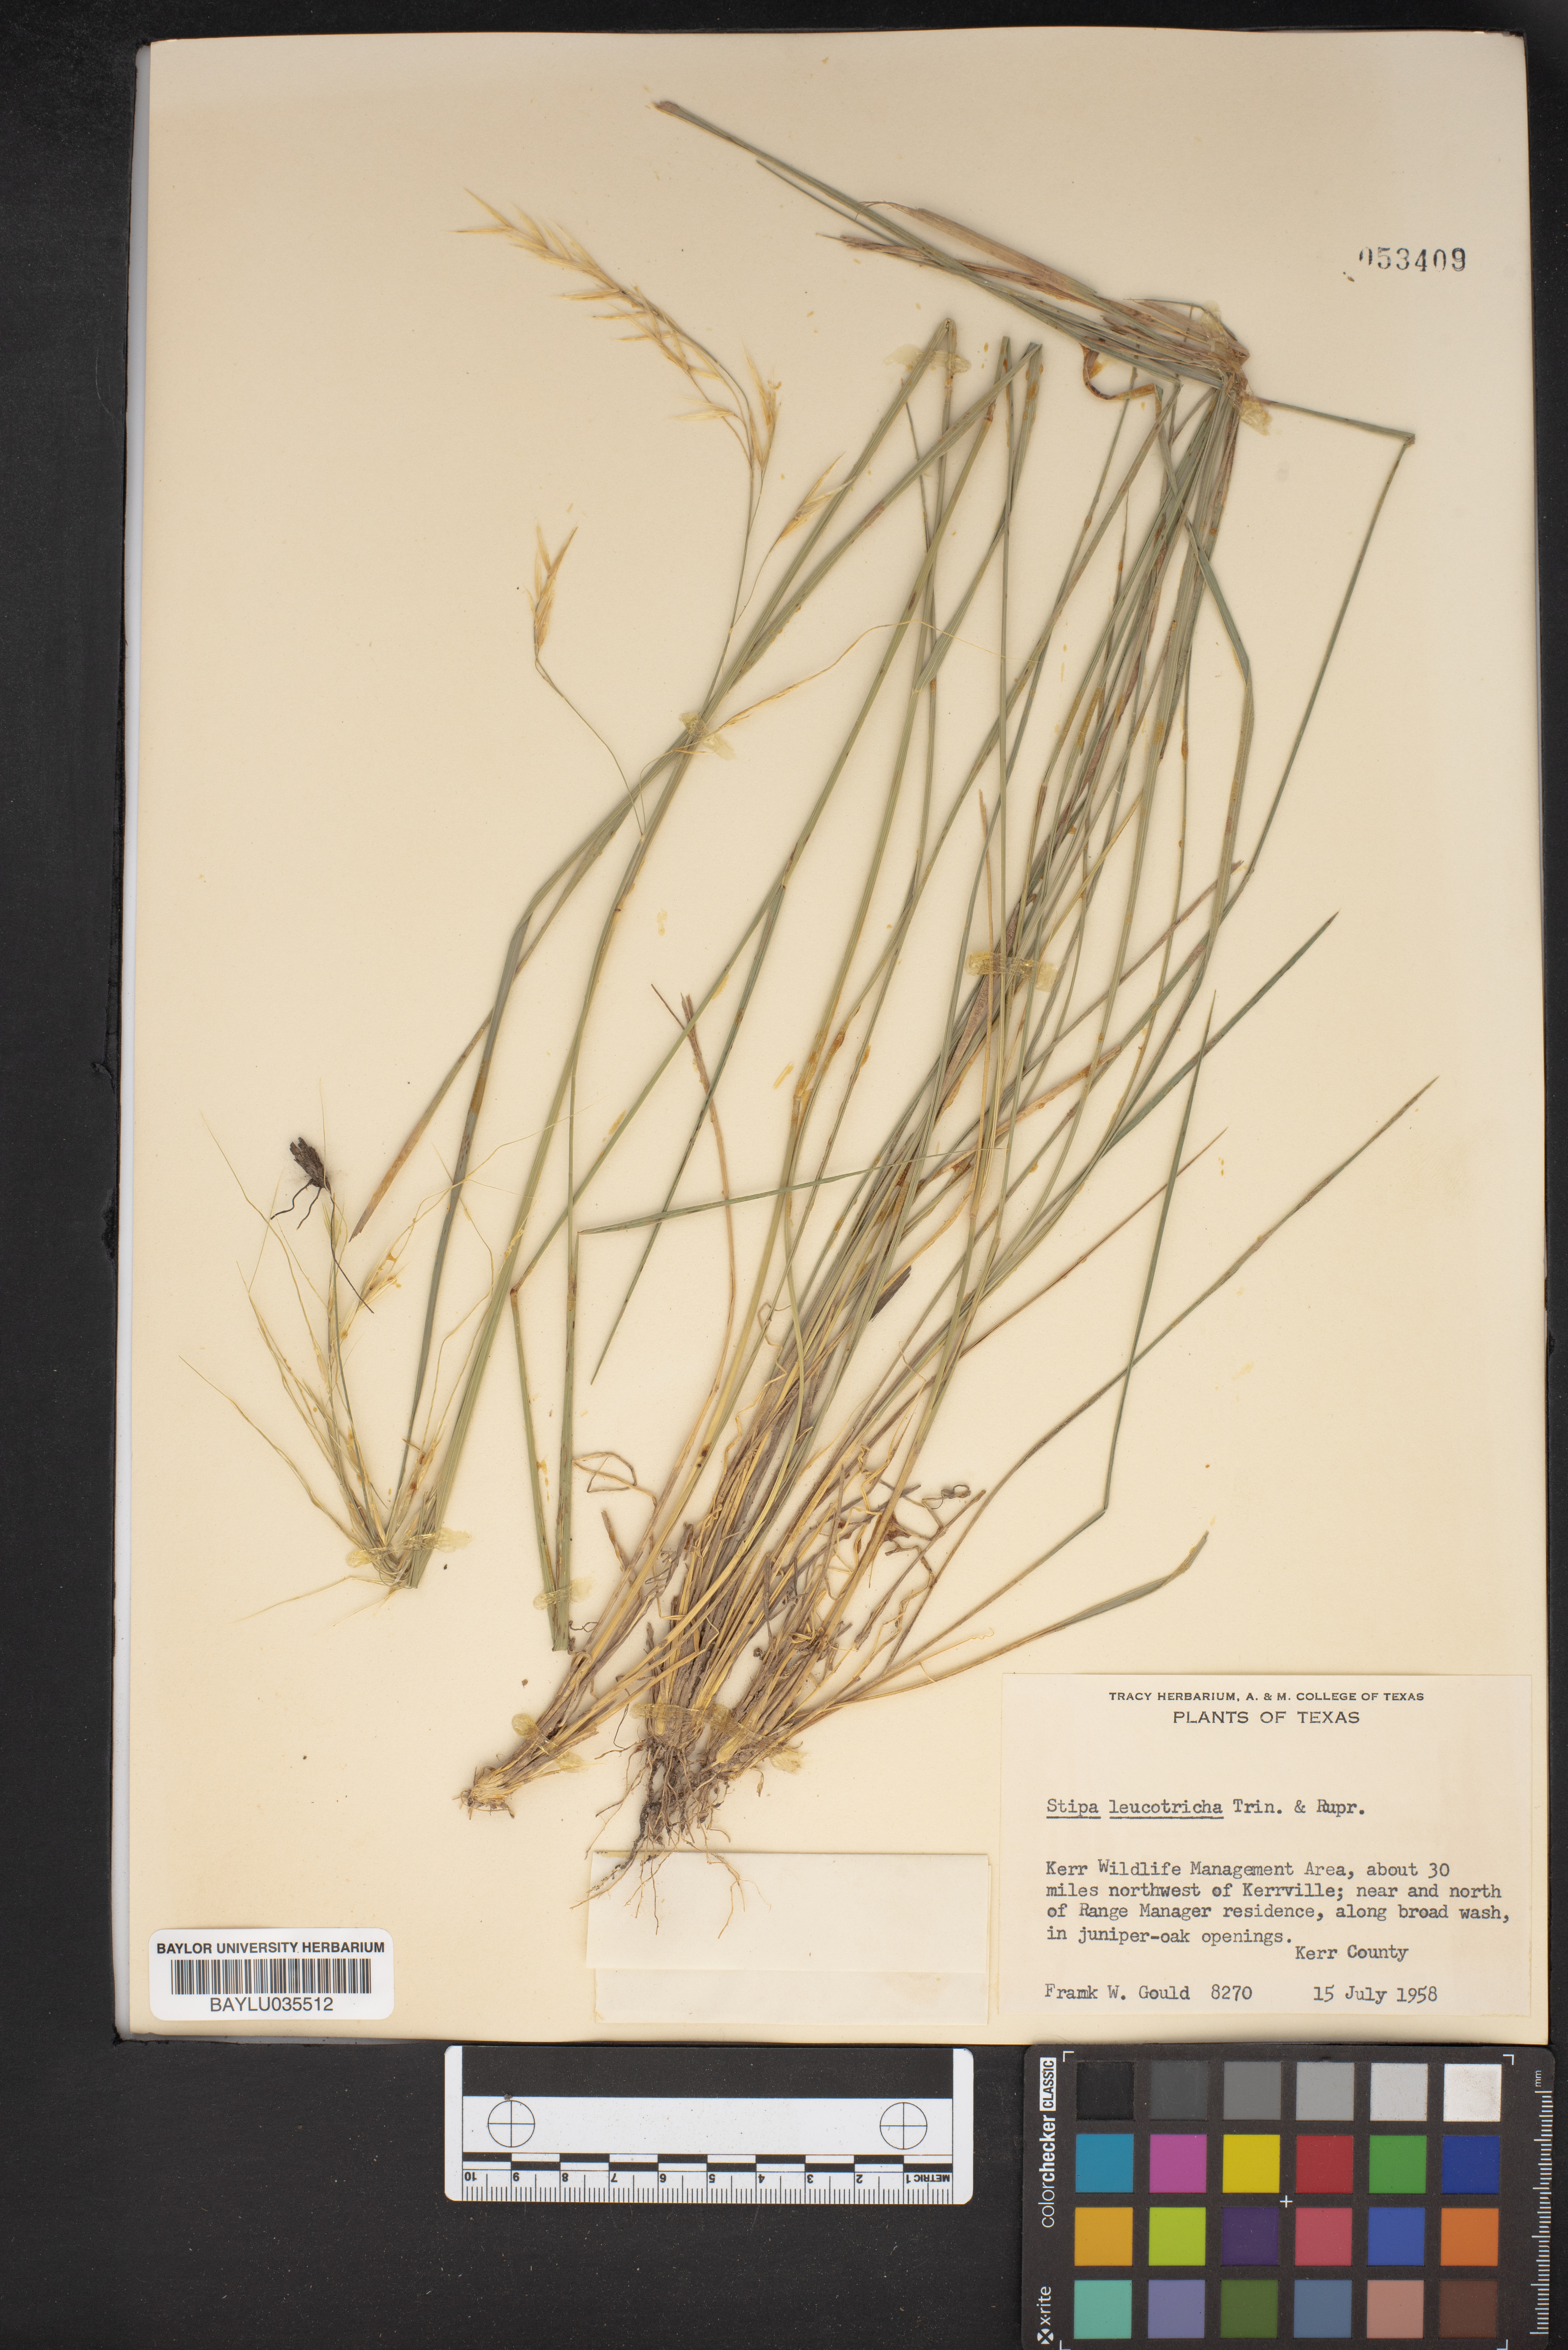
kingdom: Plantae
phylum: Tracheophyta
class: Liliopsida
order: Poales
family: Poaceae
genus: Nassella
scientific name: Nassella leucotricha
